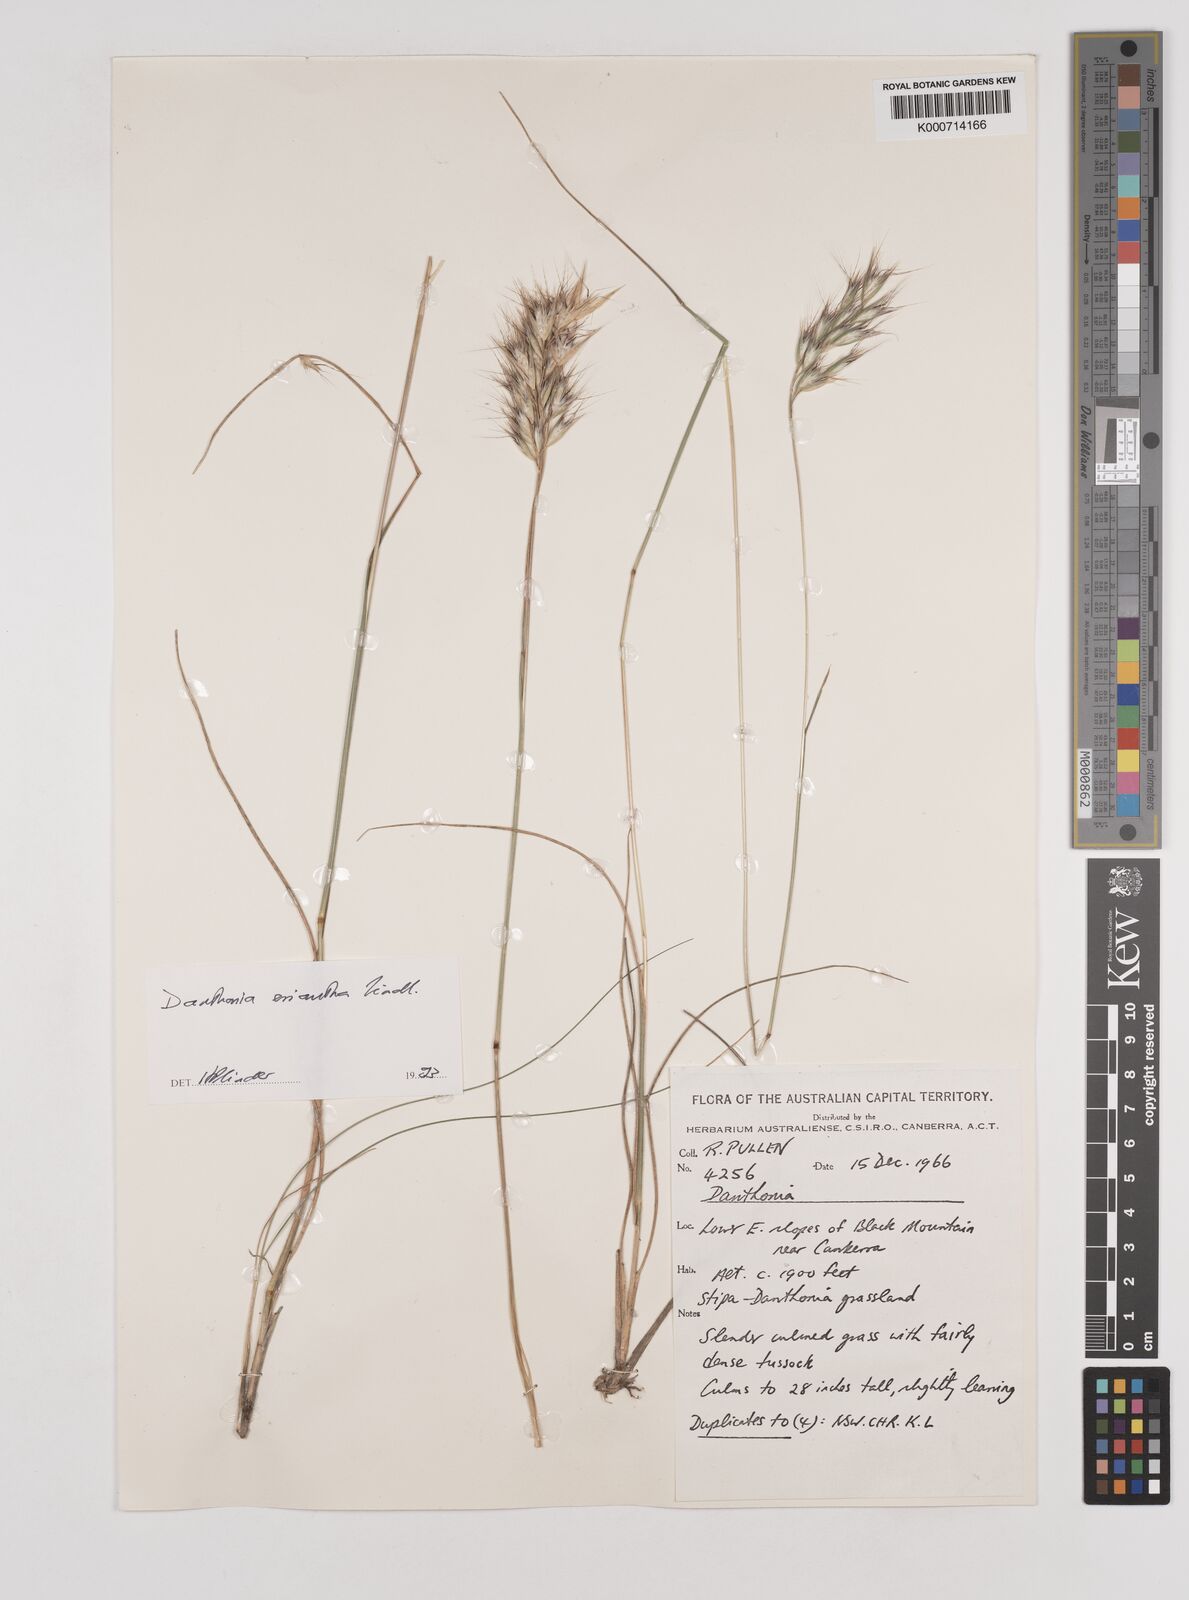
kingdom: Plantae
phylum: Tracheophyta
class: Liliopsida
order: Poales
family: Poaceae
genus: Rytidosperma
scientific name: Rytidosperma
